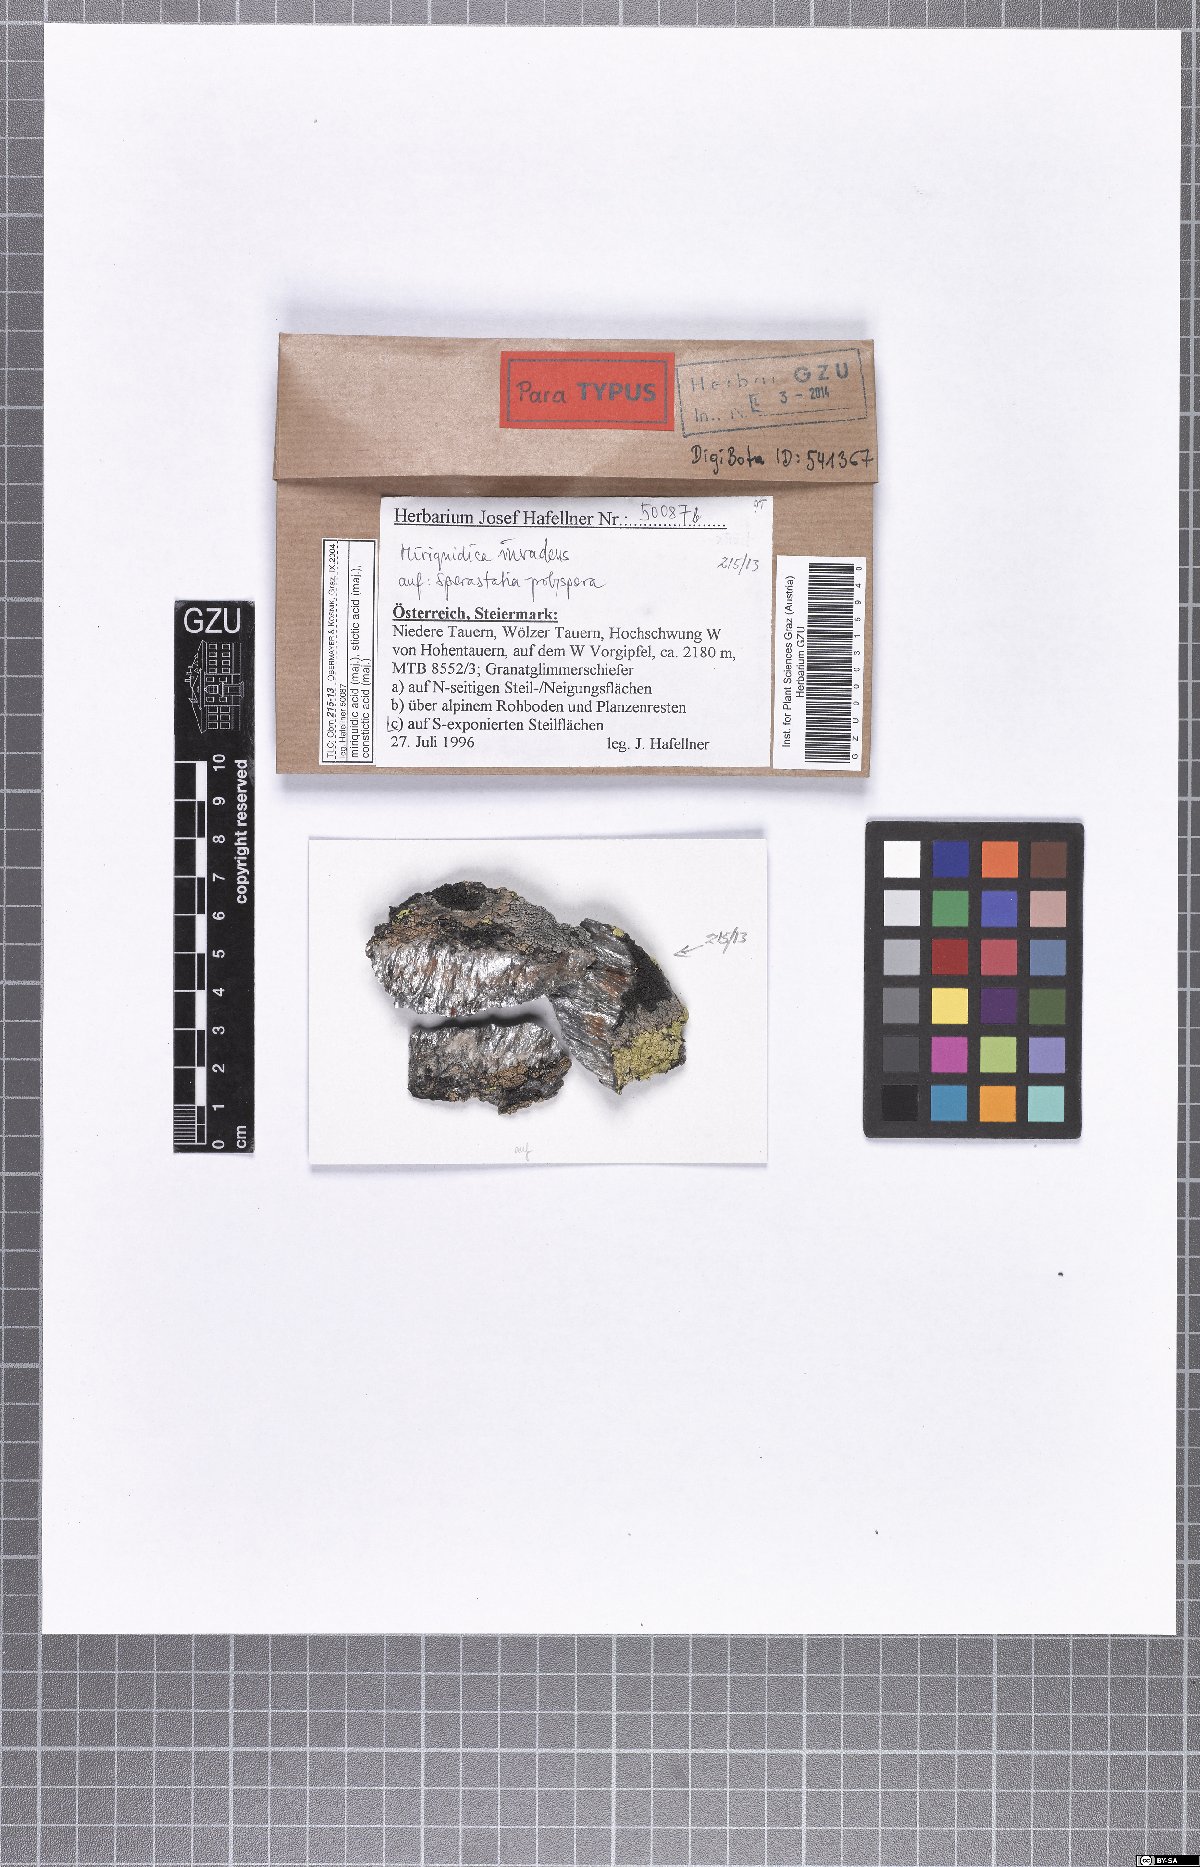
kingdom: Fungi
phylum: Ascomycota
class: Lecanoromycetes
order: Lecanorales
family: Lecanoraceae
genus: Miriquidica
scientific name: Miriquidica invadens
